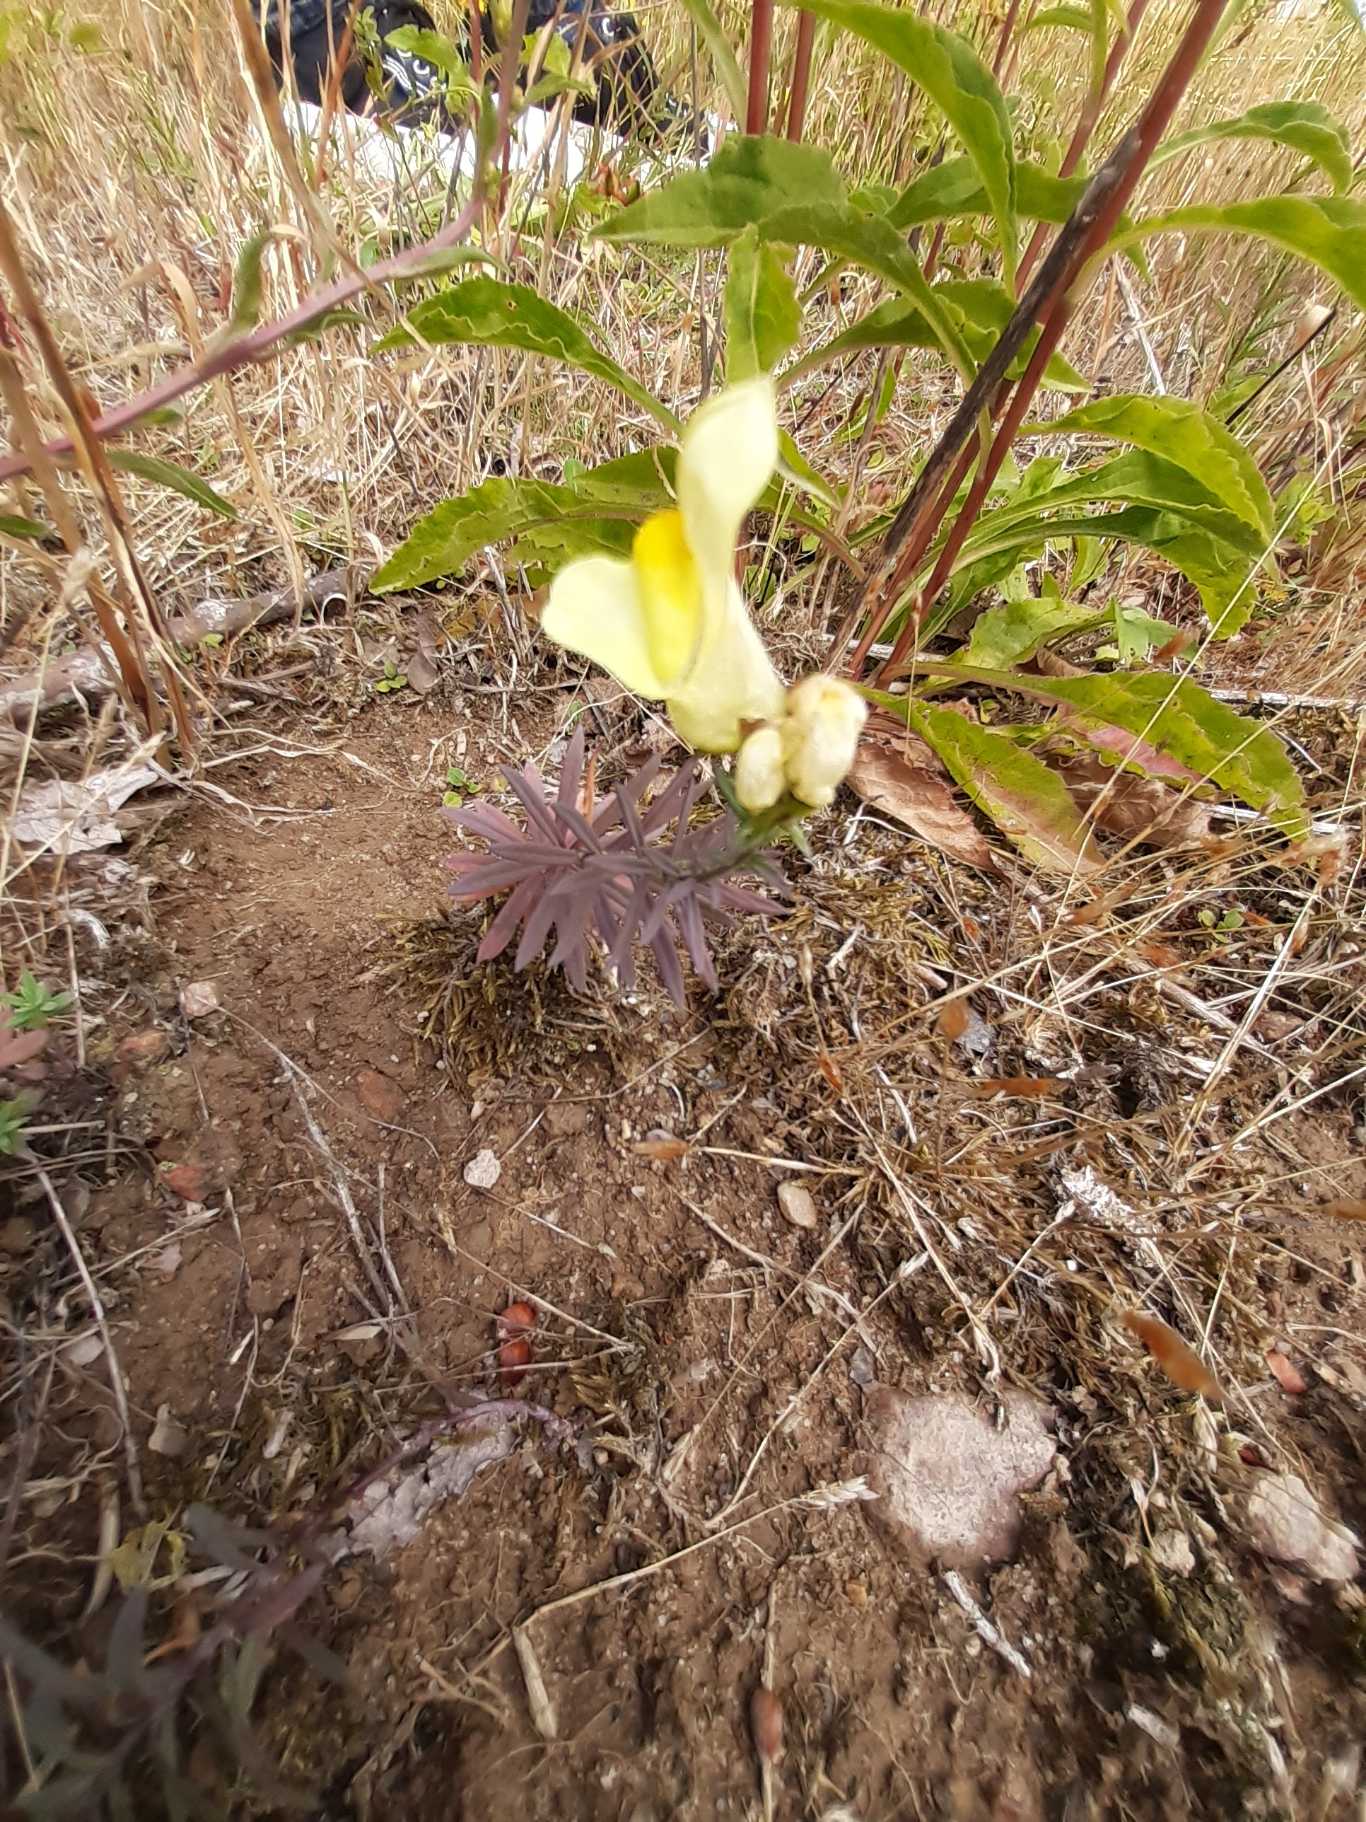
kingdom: Plantae
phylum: Tracheophyta
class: Magnoliopsida
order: Lamiales
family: Plantaginaceae
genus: Linaria
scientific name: Linaria vulgaris
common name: Almindelig torskemund
